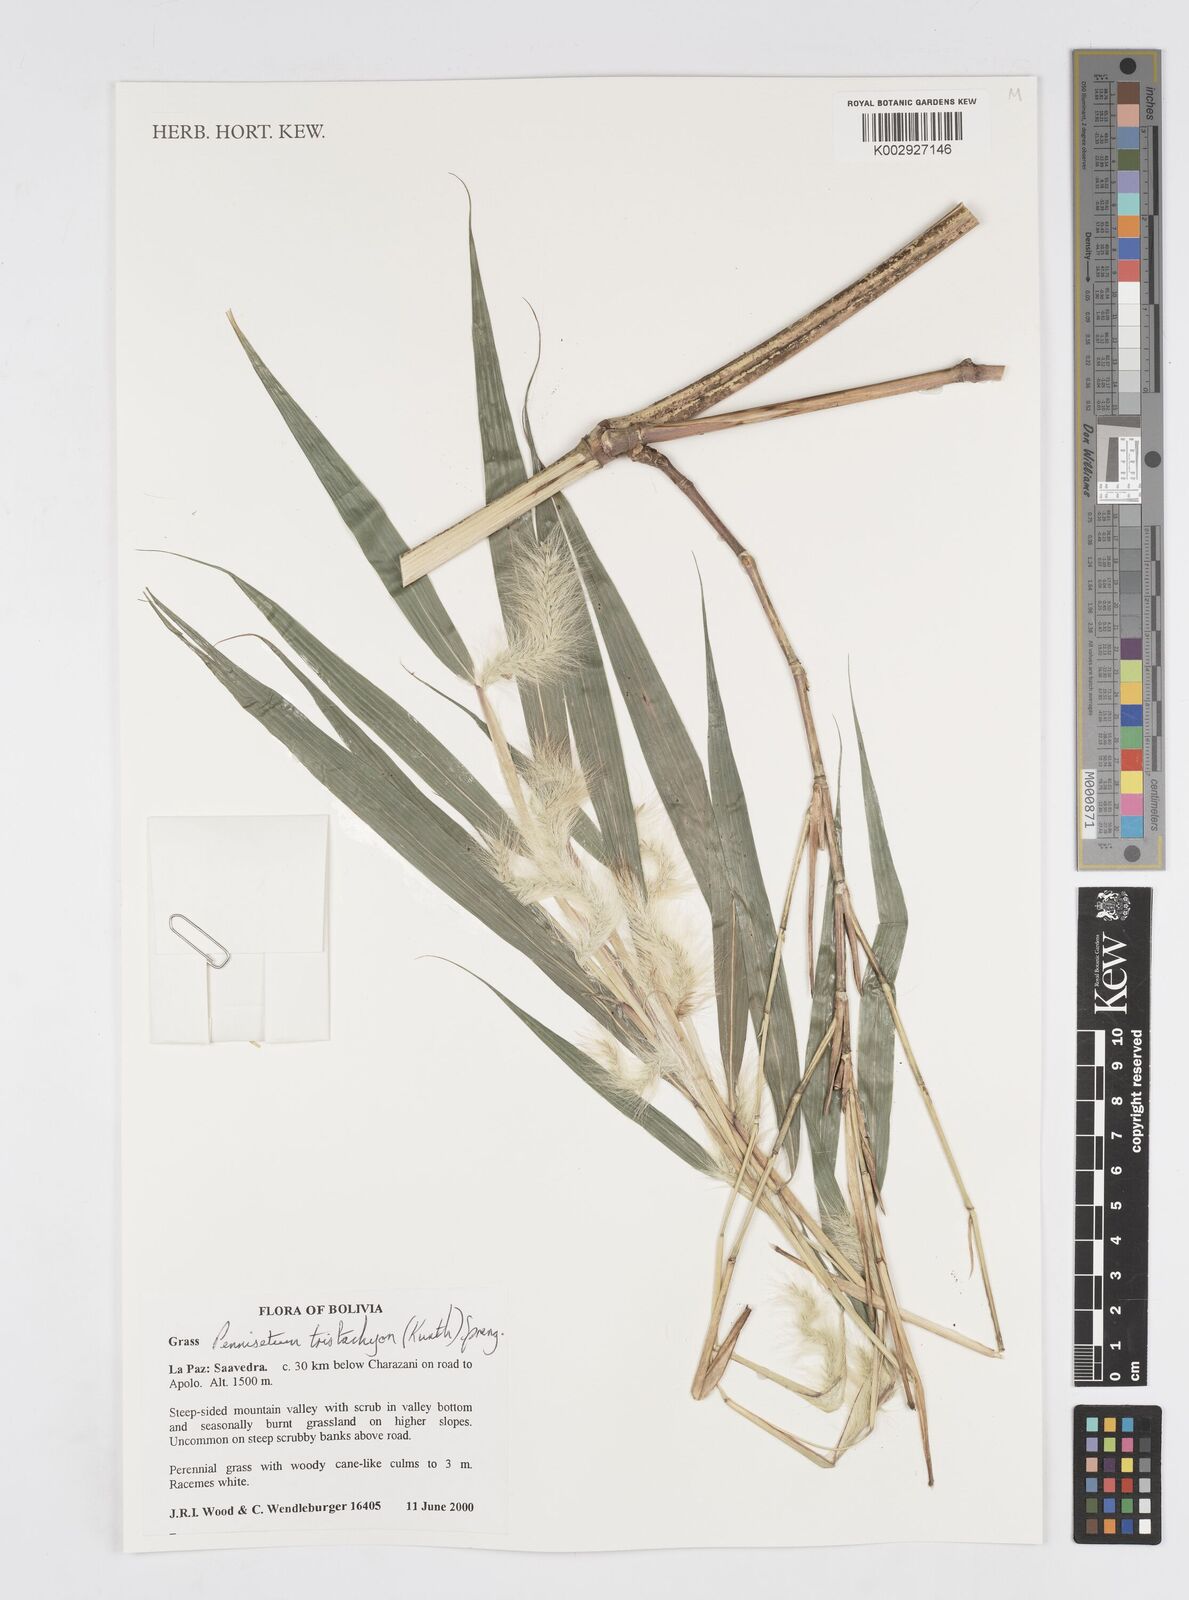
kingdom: Plantae
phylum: Tracheophyta
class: Liliopsida
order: Poales
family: Poaceae
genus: Cenchrus
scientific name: Cenchrus tristachyus
